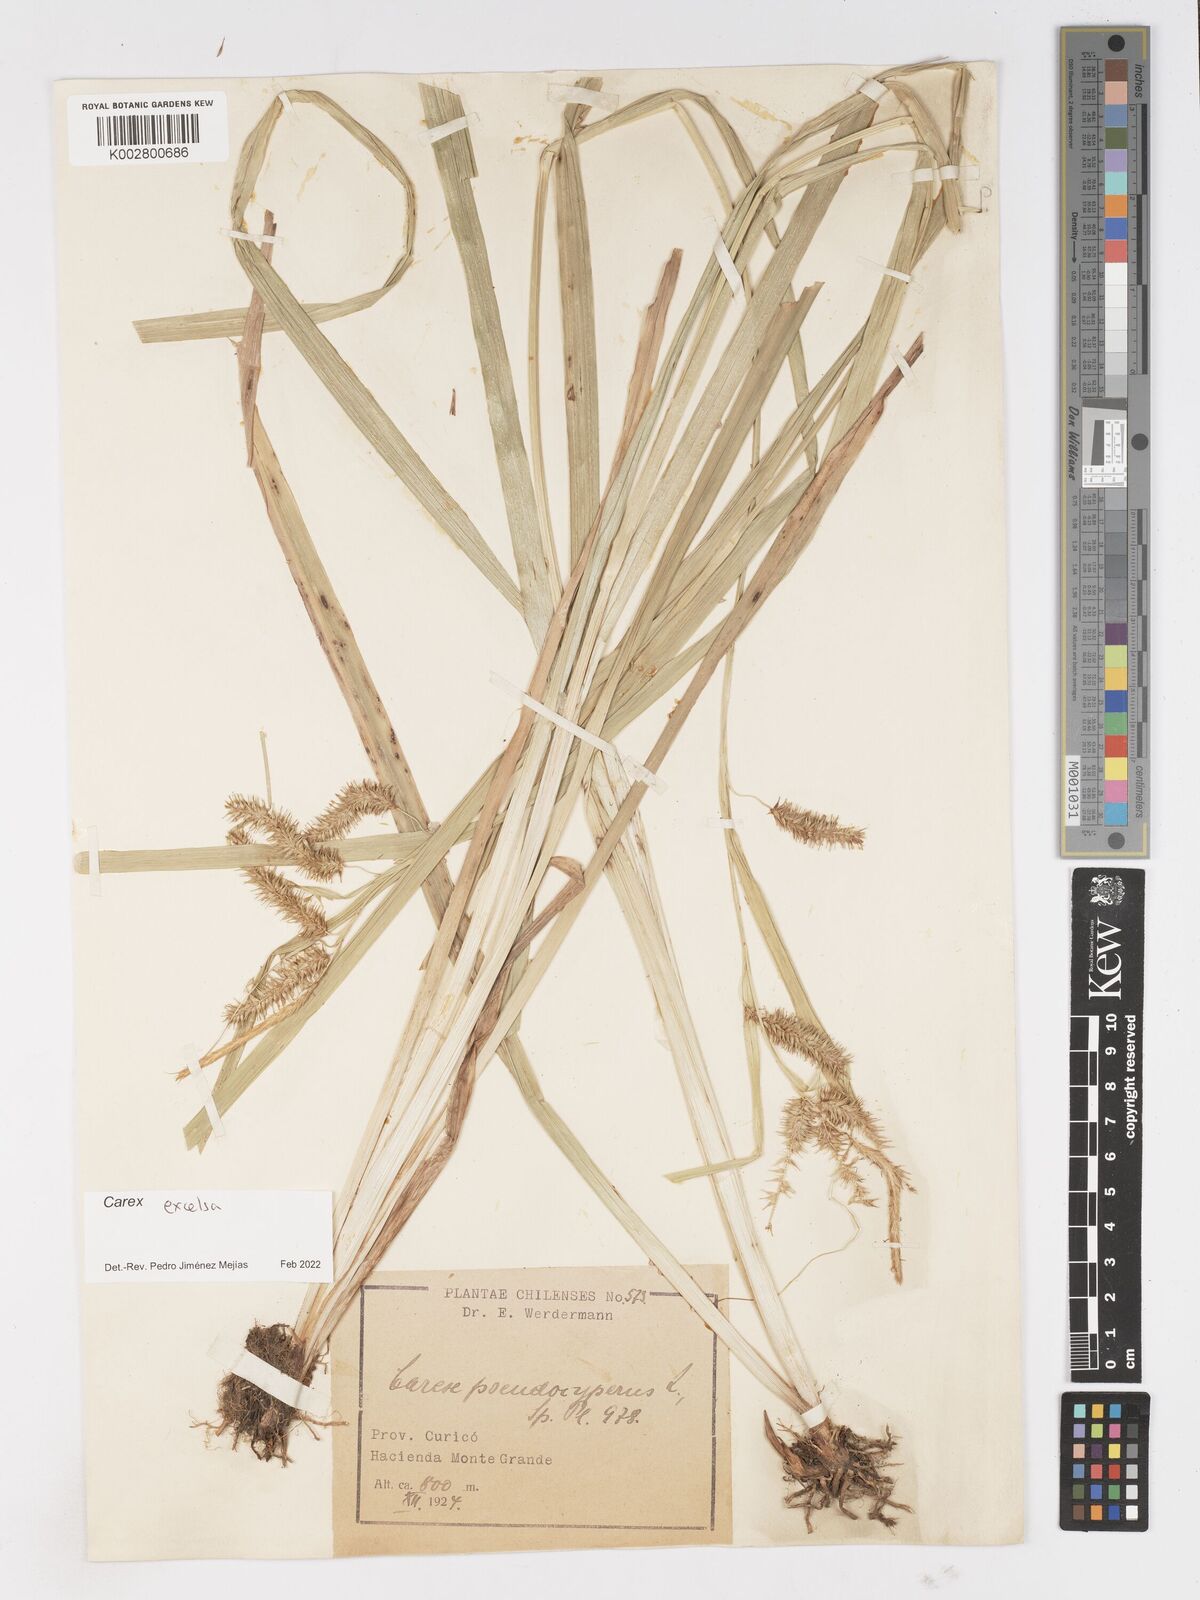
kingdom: Plantae
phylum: Tracheophyta
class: Liliopsida
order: Poales
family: Cyperaceae
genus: Carex
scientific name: Carex excelsa
